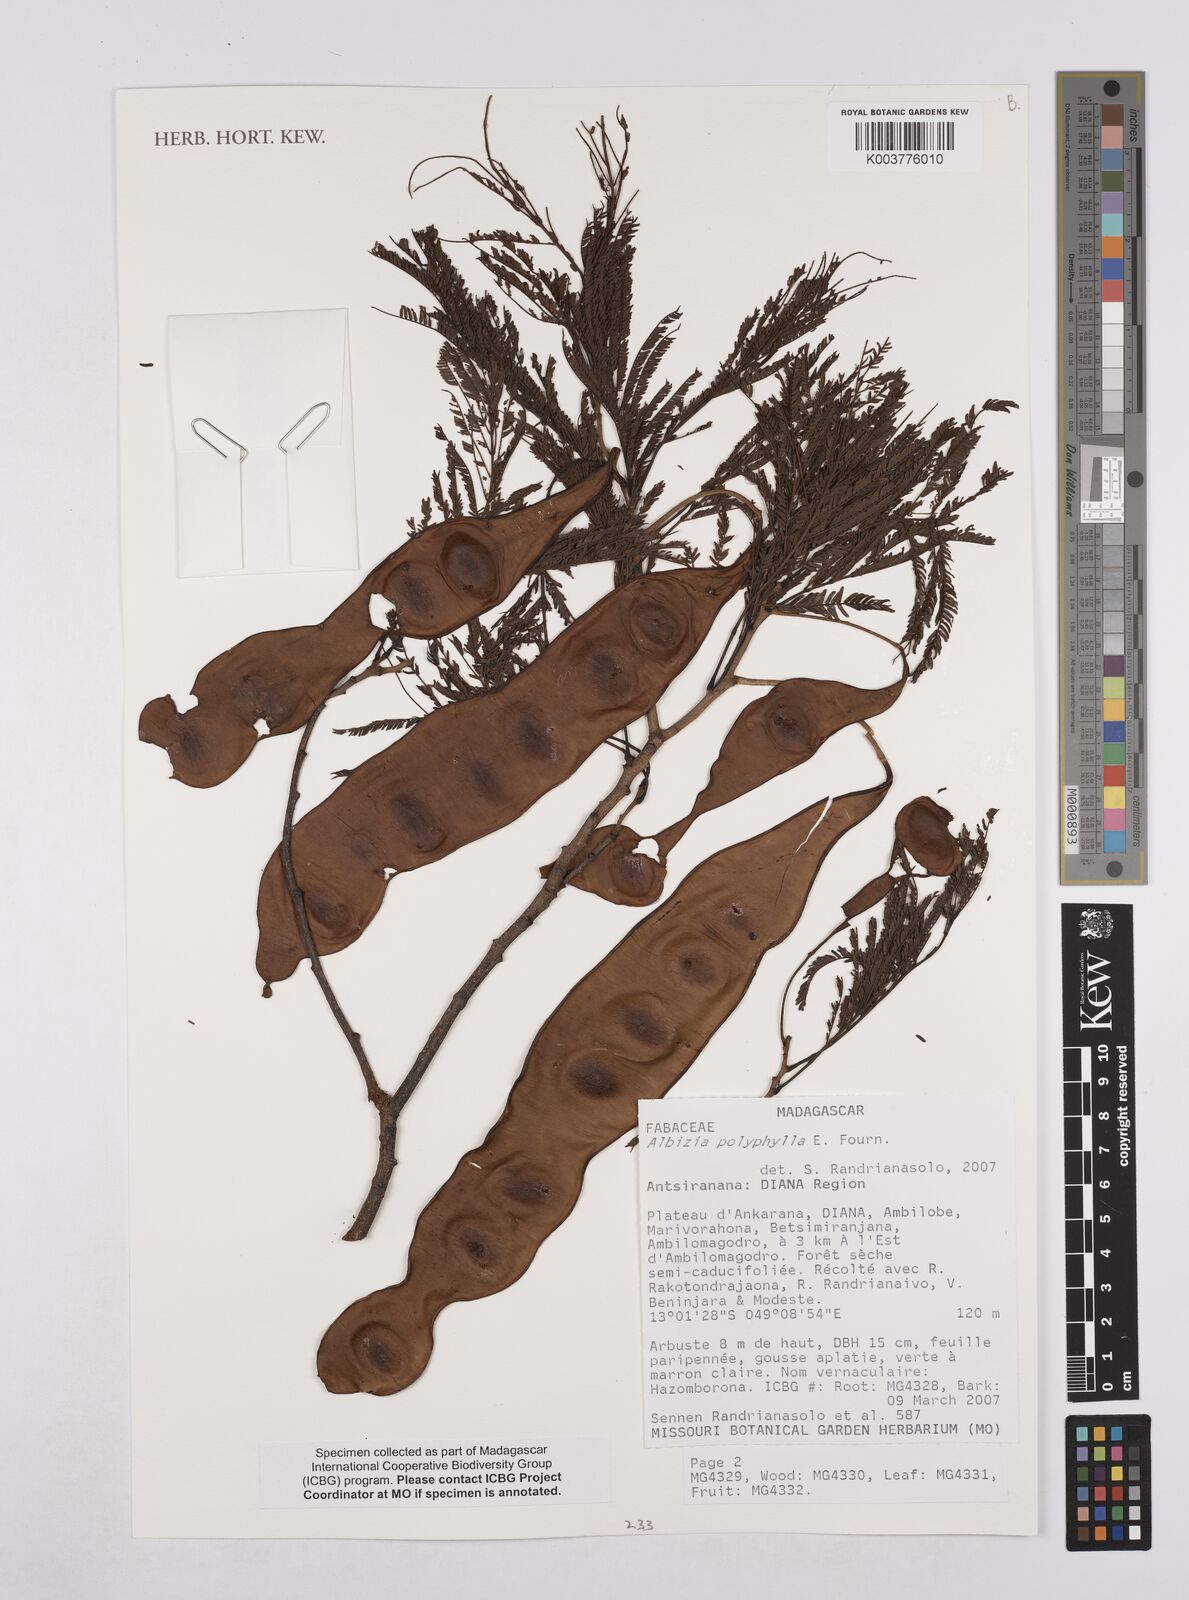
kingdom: Plantae
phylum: Tracheophyta
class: Magnoliopsida
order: Fabales
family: Fabaceae
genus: Albizia
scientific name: Albizia polyphylla
